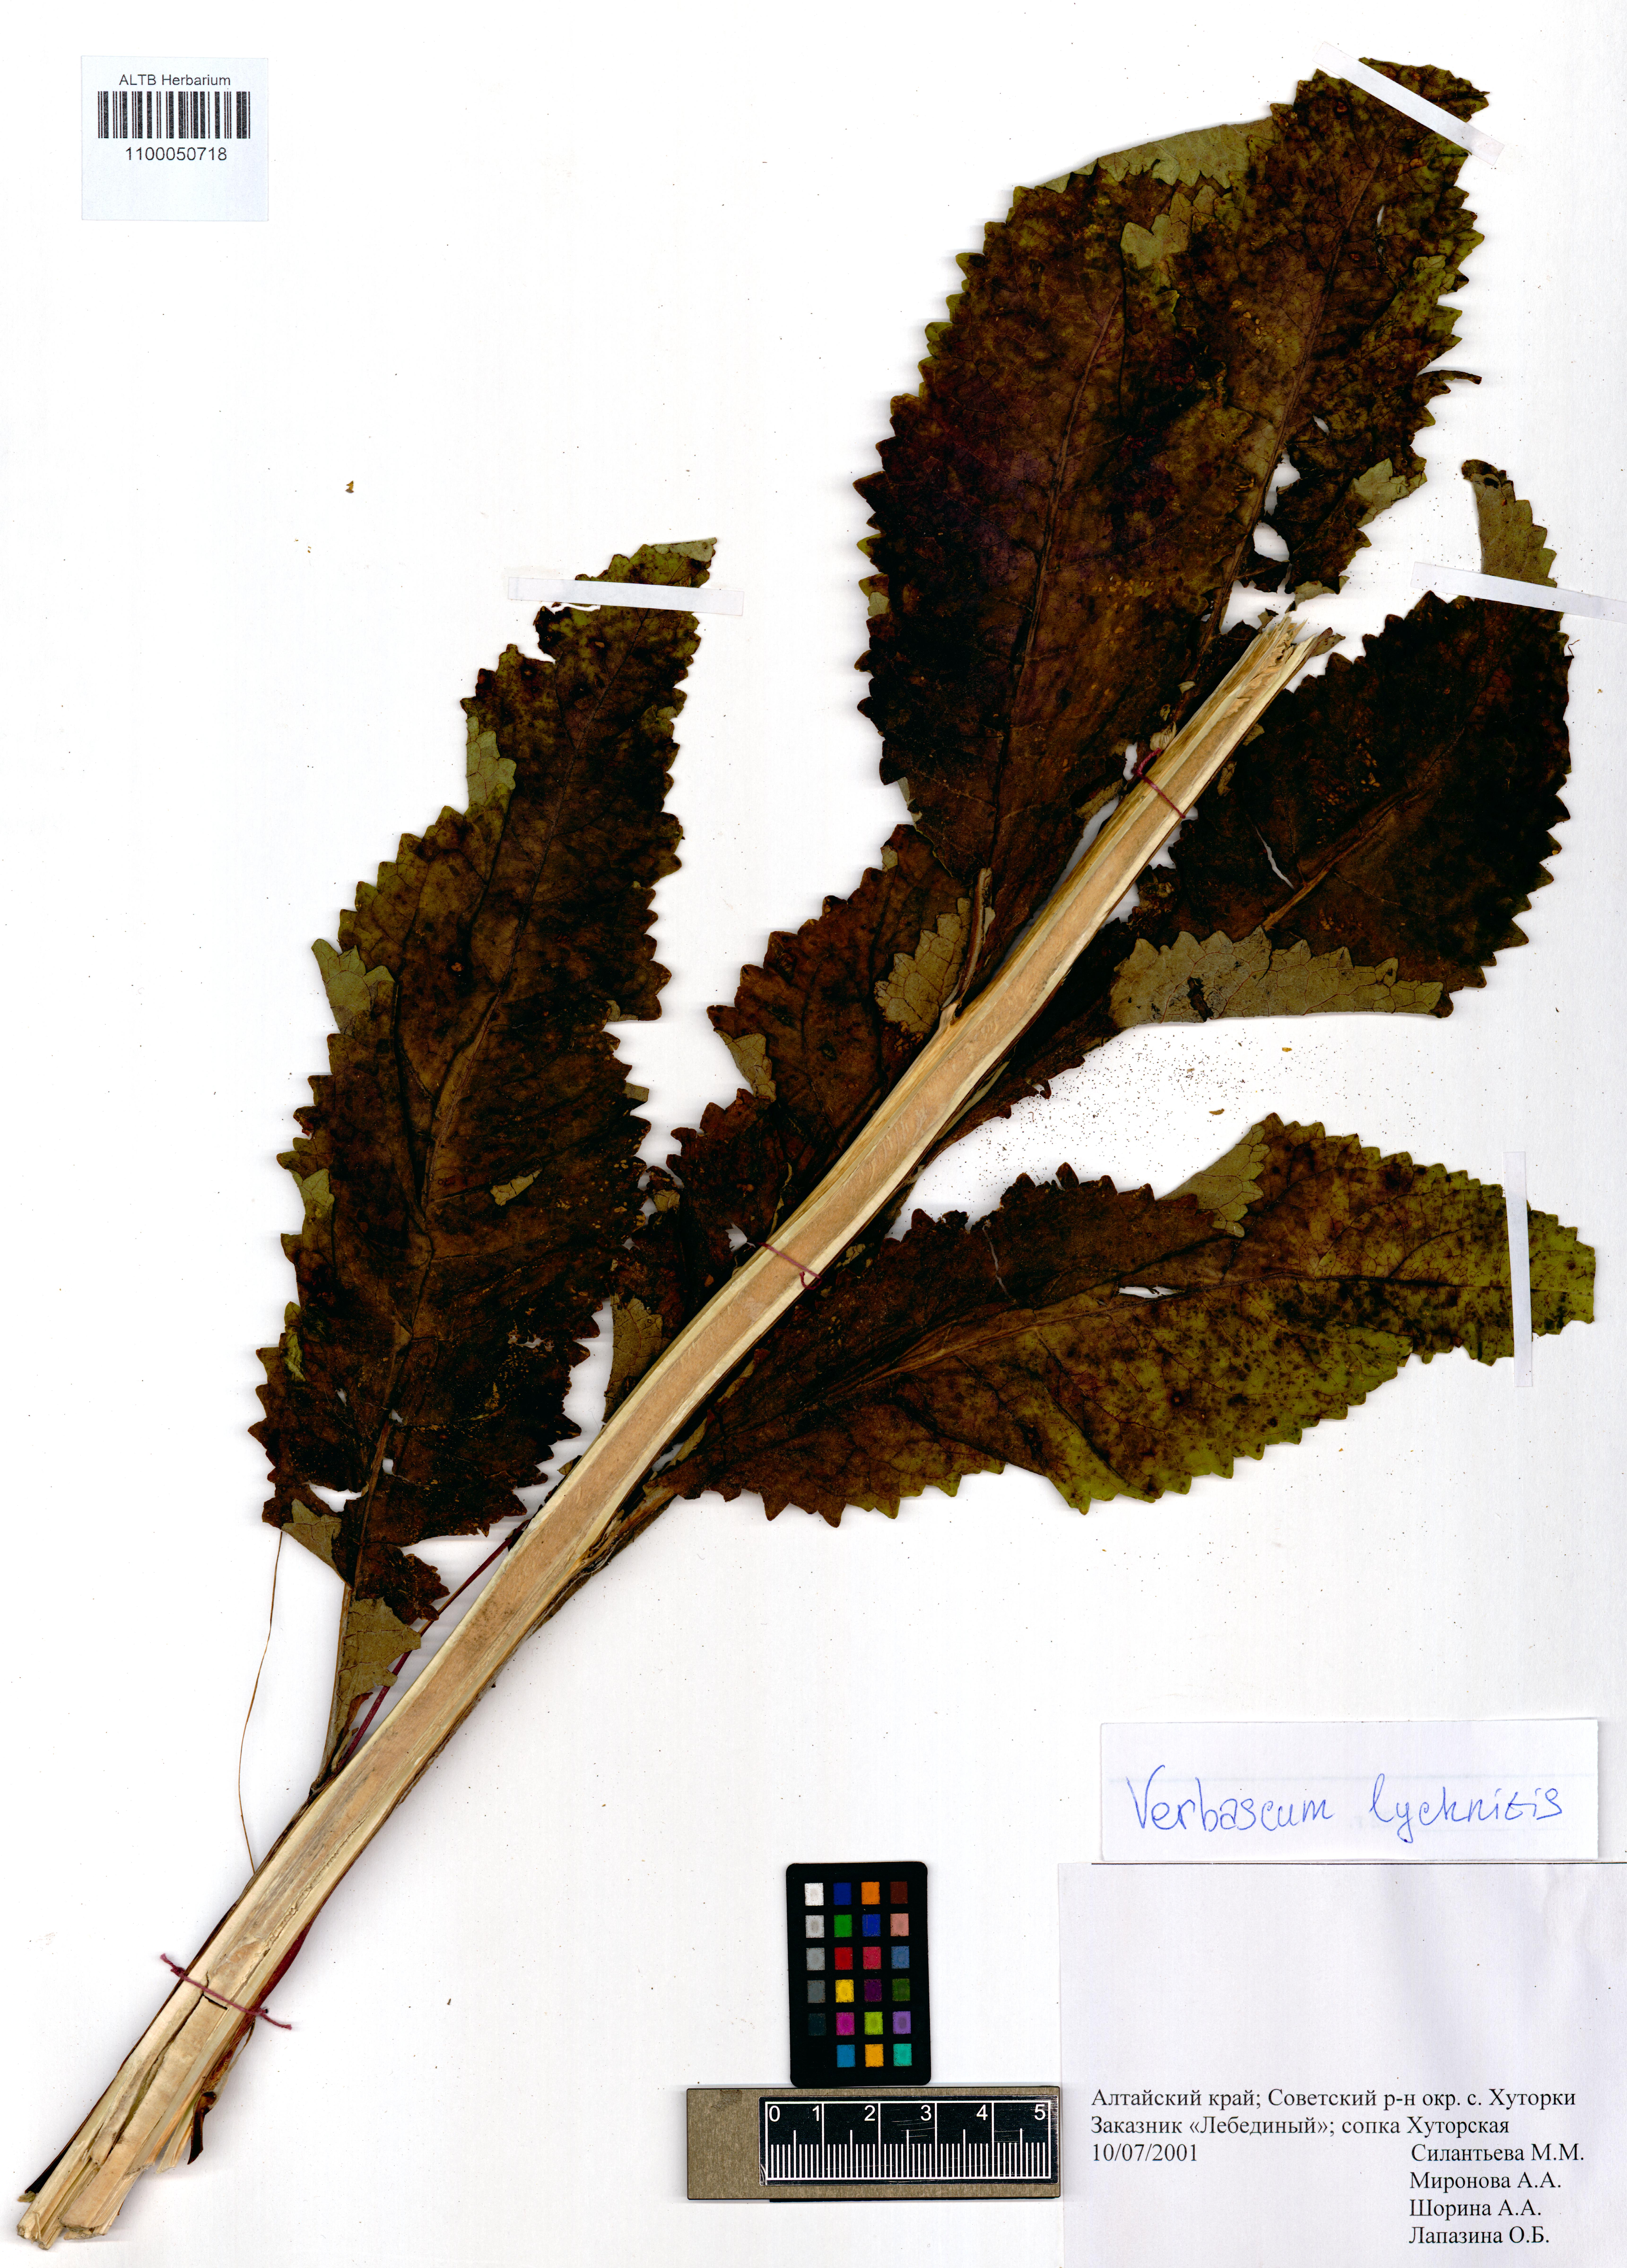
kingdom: Plantae
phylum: Tracheophyta
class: Magnoliopsida
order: Lamiales
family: Scrophulariaceae
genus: Verbascum
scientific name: Verbascum lychnitis
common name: White mullein
